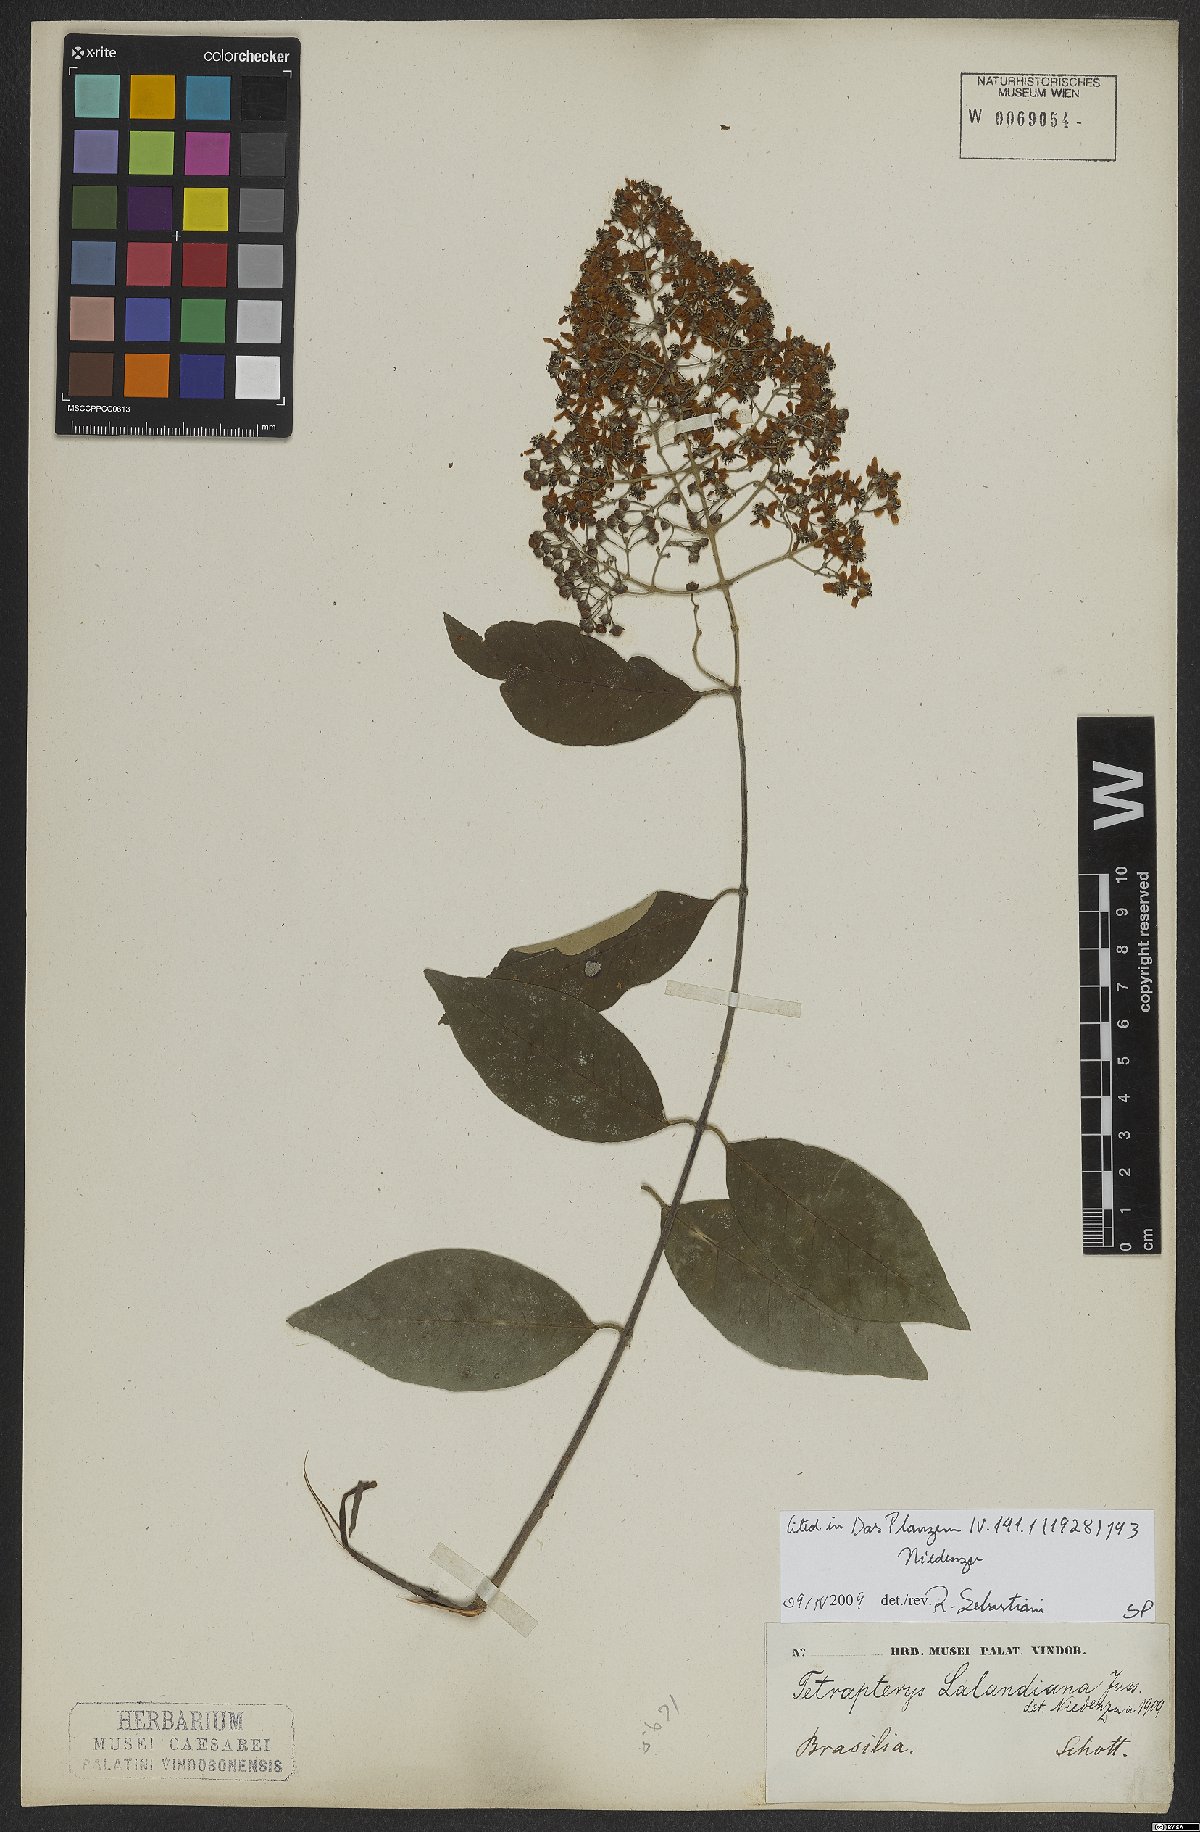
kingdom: Plantae
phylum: Tracheophyta
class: Magnoliopsida
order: Malpighiales
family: Malpighiaceae
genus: Niedenzuella
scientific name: Niedenzuella sericea
